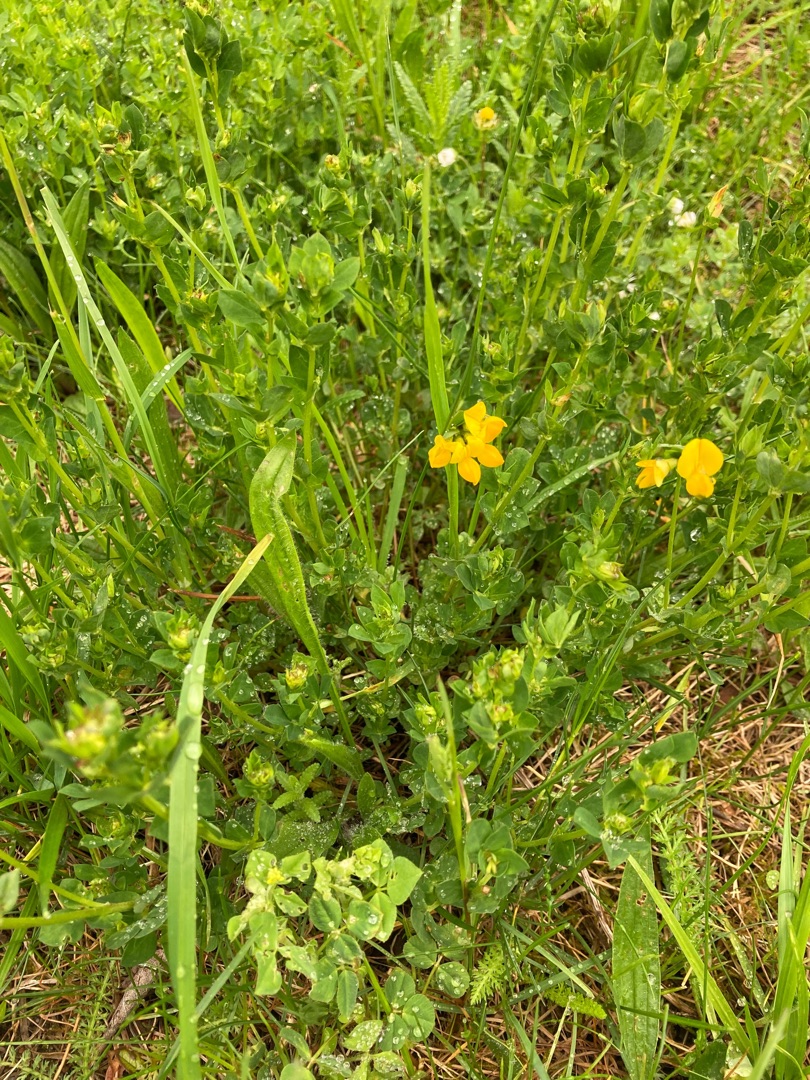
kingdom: Plantae
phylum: Tracheophyta
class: Magnoliopsida
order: Fabales
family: Fabaceae
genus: Lotus
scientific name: Lotus corniculatus
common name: Almindelig kællingetand
